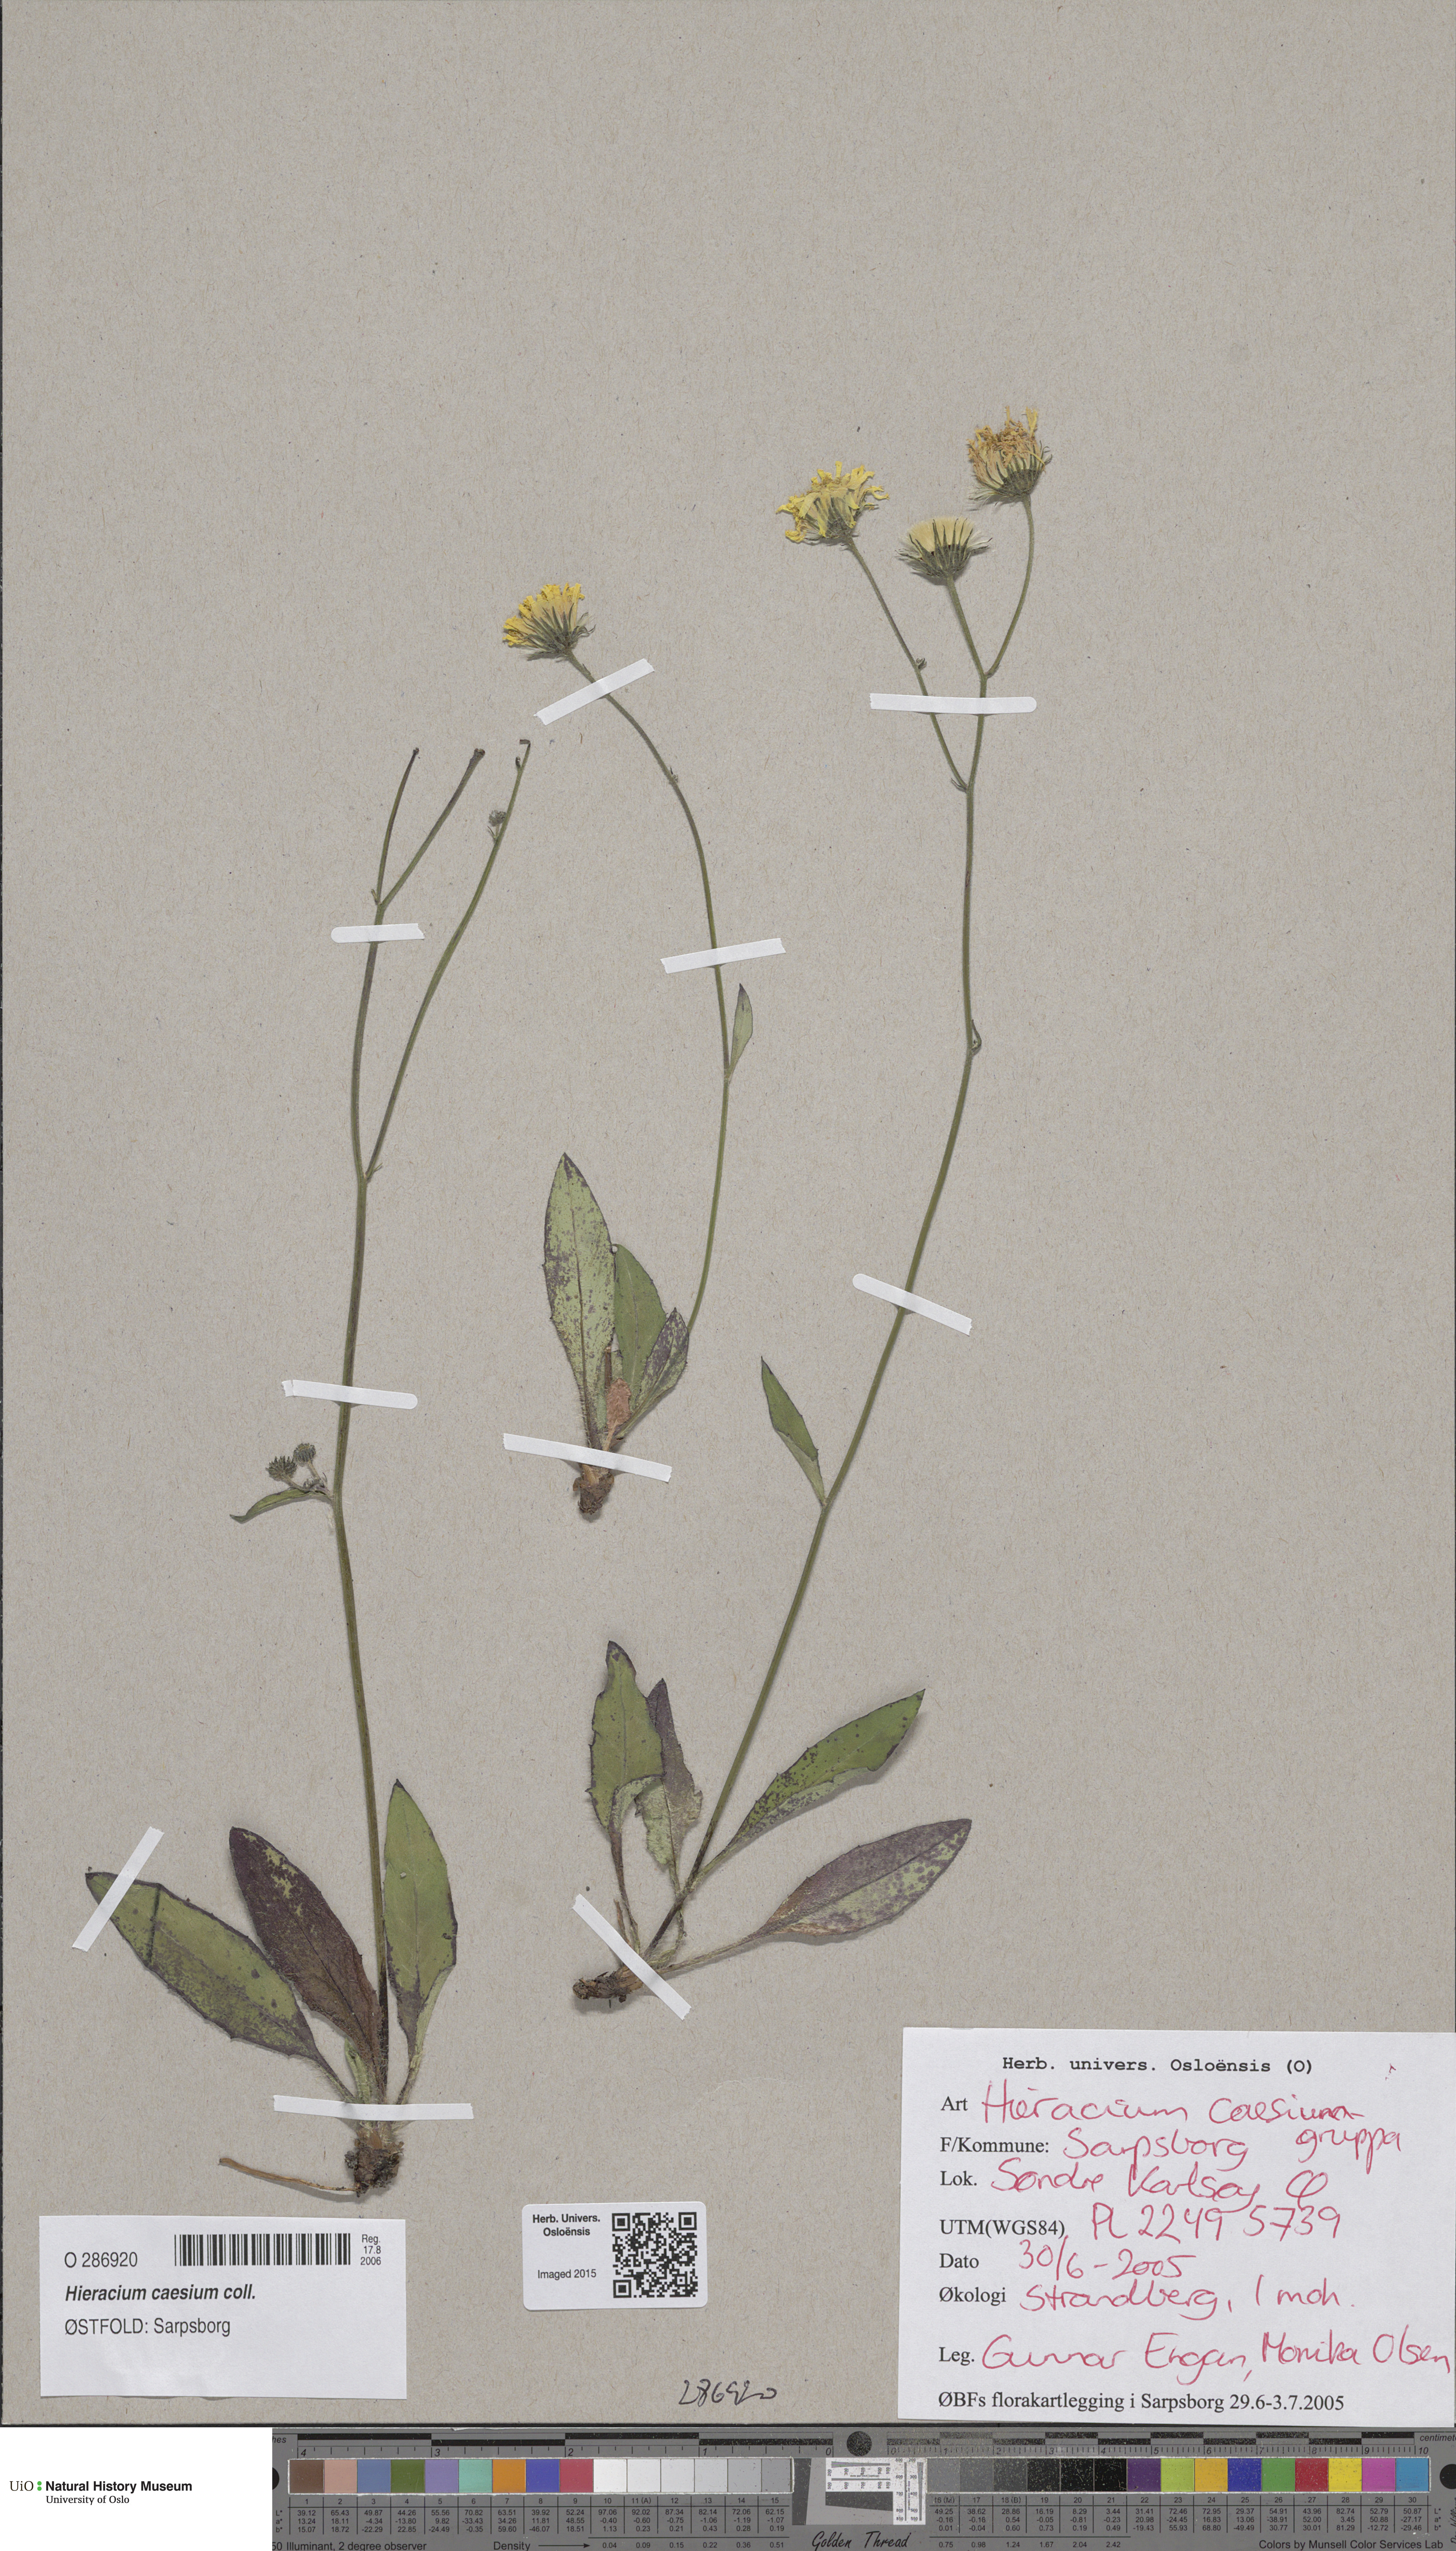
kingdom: Plantae
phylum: Tracheophyta
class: Magnoliopsida
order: Asterales
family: Asteraceae
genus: Hieracium
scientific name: Hieracium caesium
